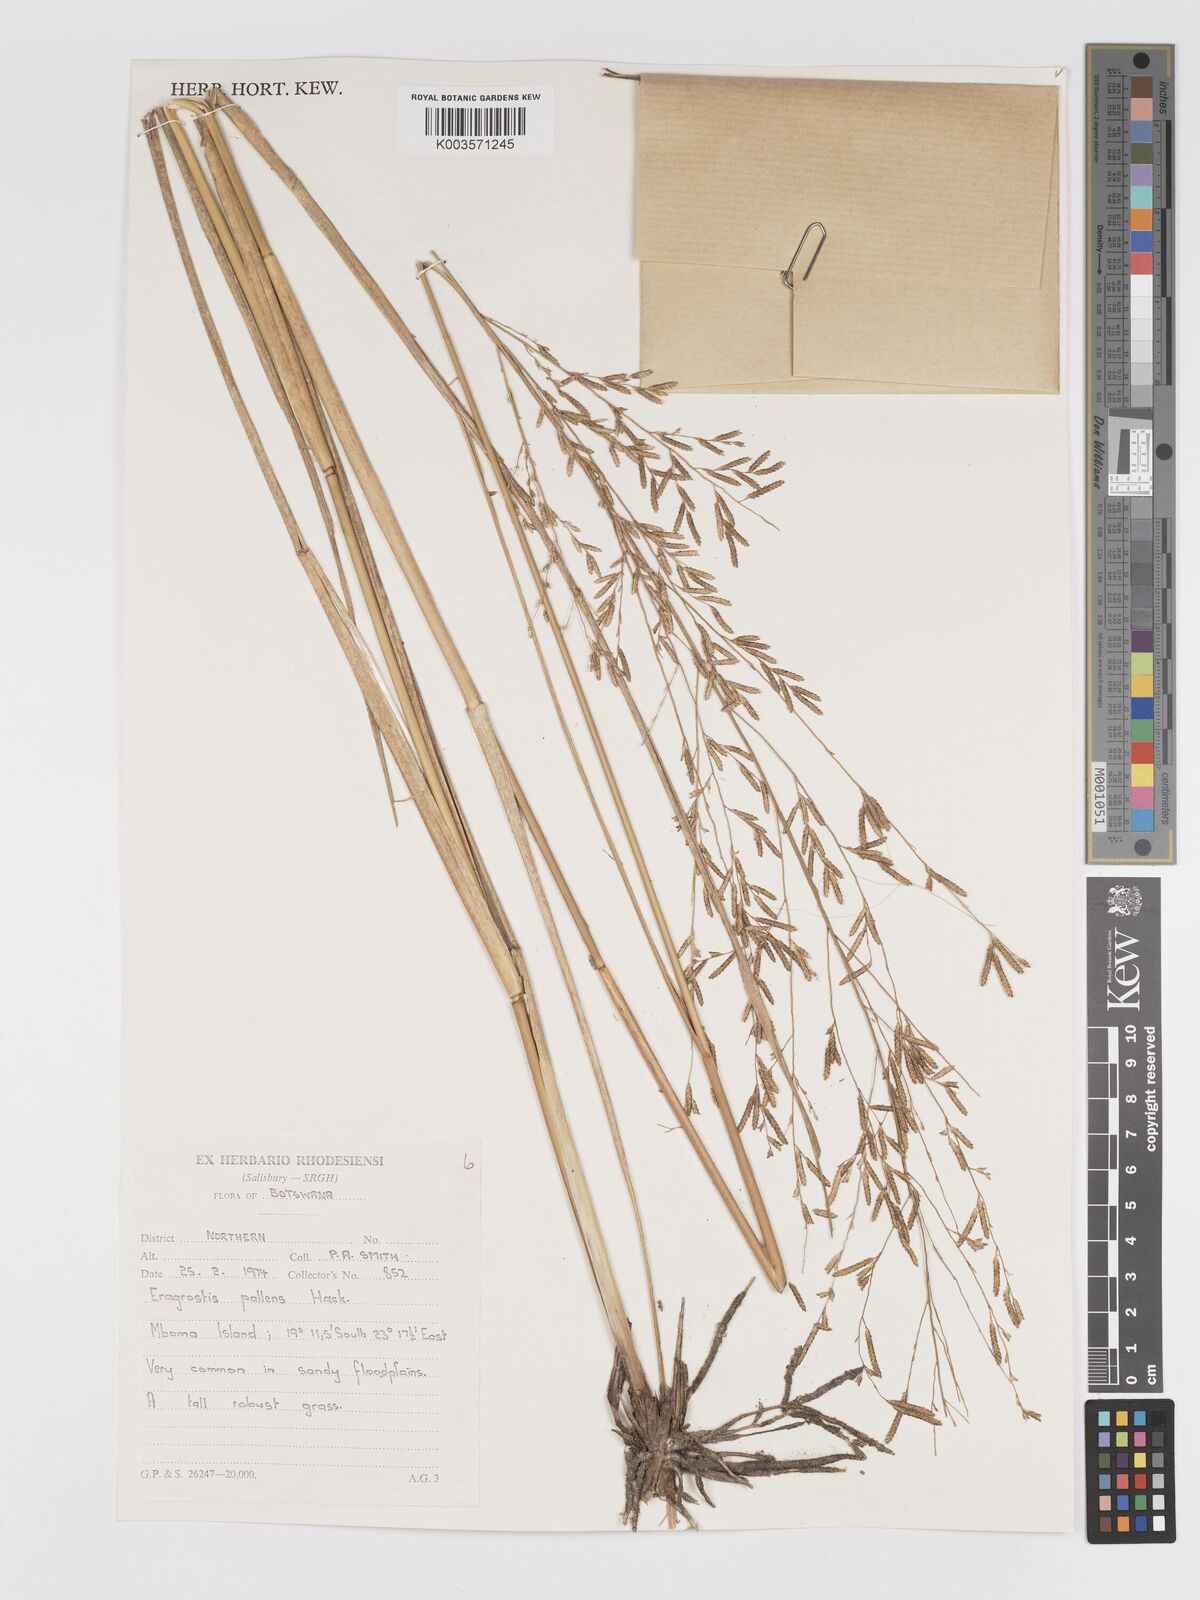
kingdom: Plantae
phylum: Tracheophyta
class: Liliopsida
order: Poales
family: Poaceae
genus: Eragrostis
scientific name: Eragrostis pallens
